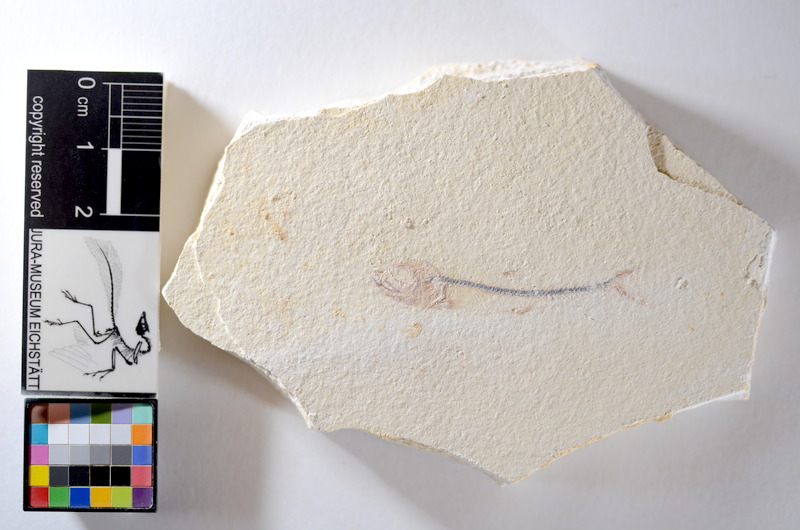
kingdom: Animalia
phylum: Chordata
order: Salmoniformes
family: Orthogonikleithridae
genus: Orthogonikleithrus
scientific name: Orthogonikleithrus hoelli
